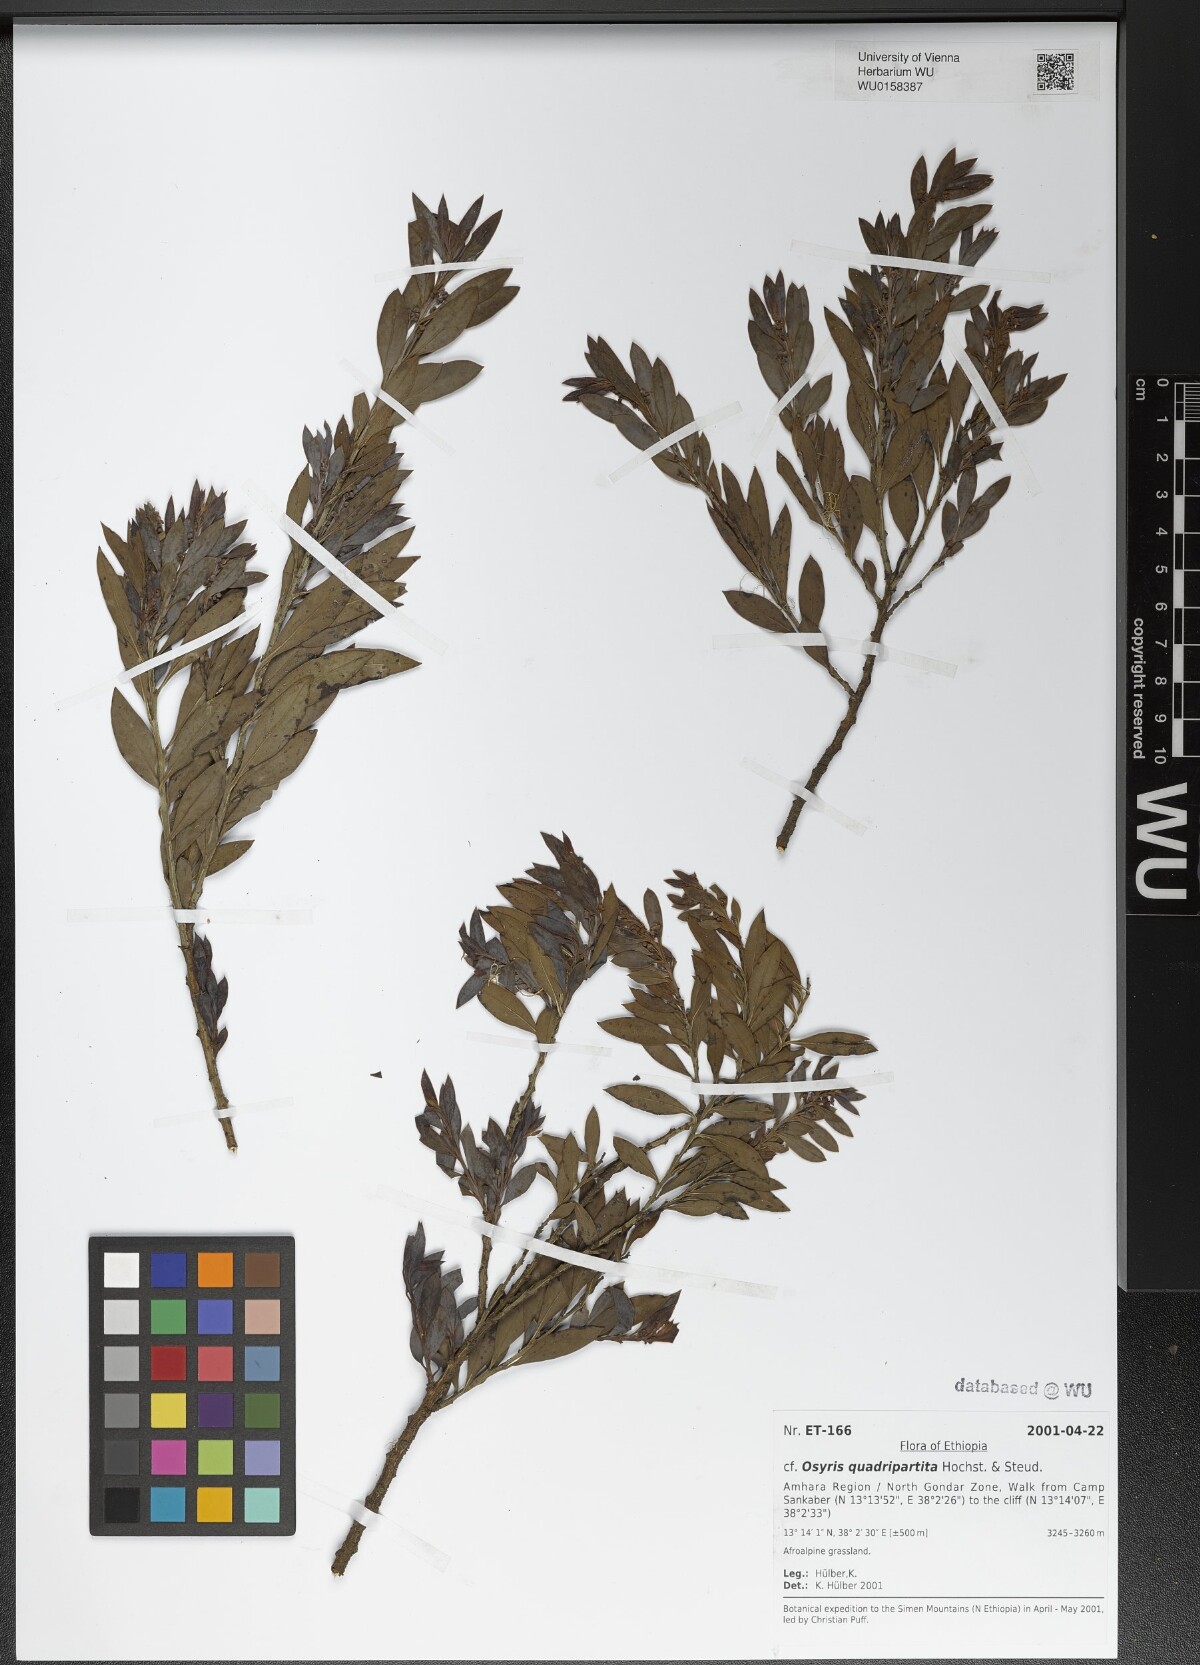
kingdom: Plantae
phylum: Tracheophyta
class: Magnoliopsida
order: Santalales
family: Santalaceae
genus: Osyris
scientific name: Osyris quadripartita
